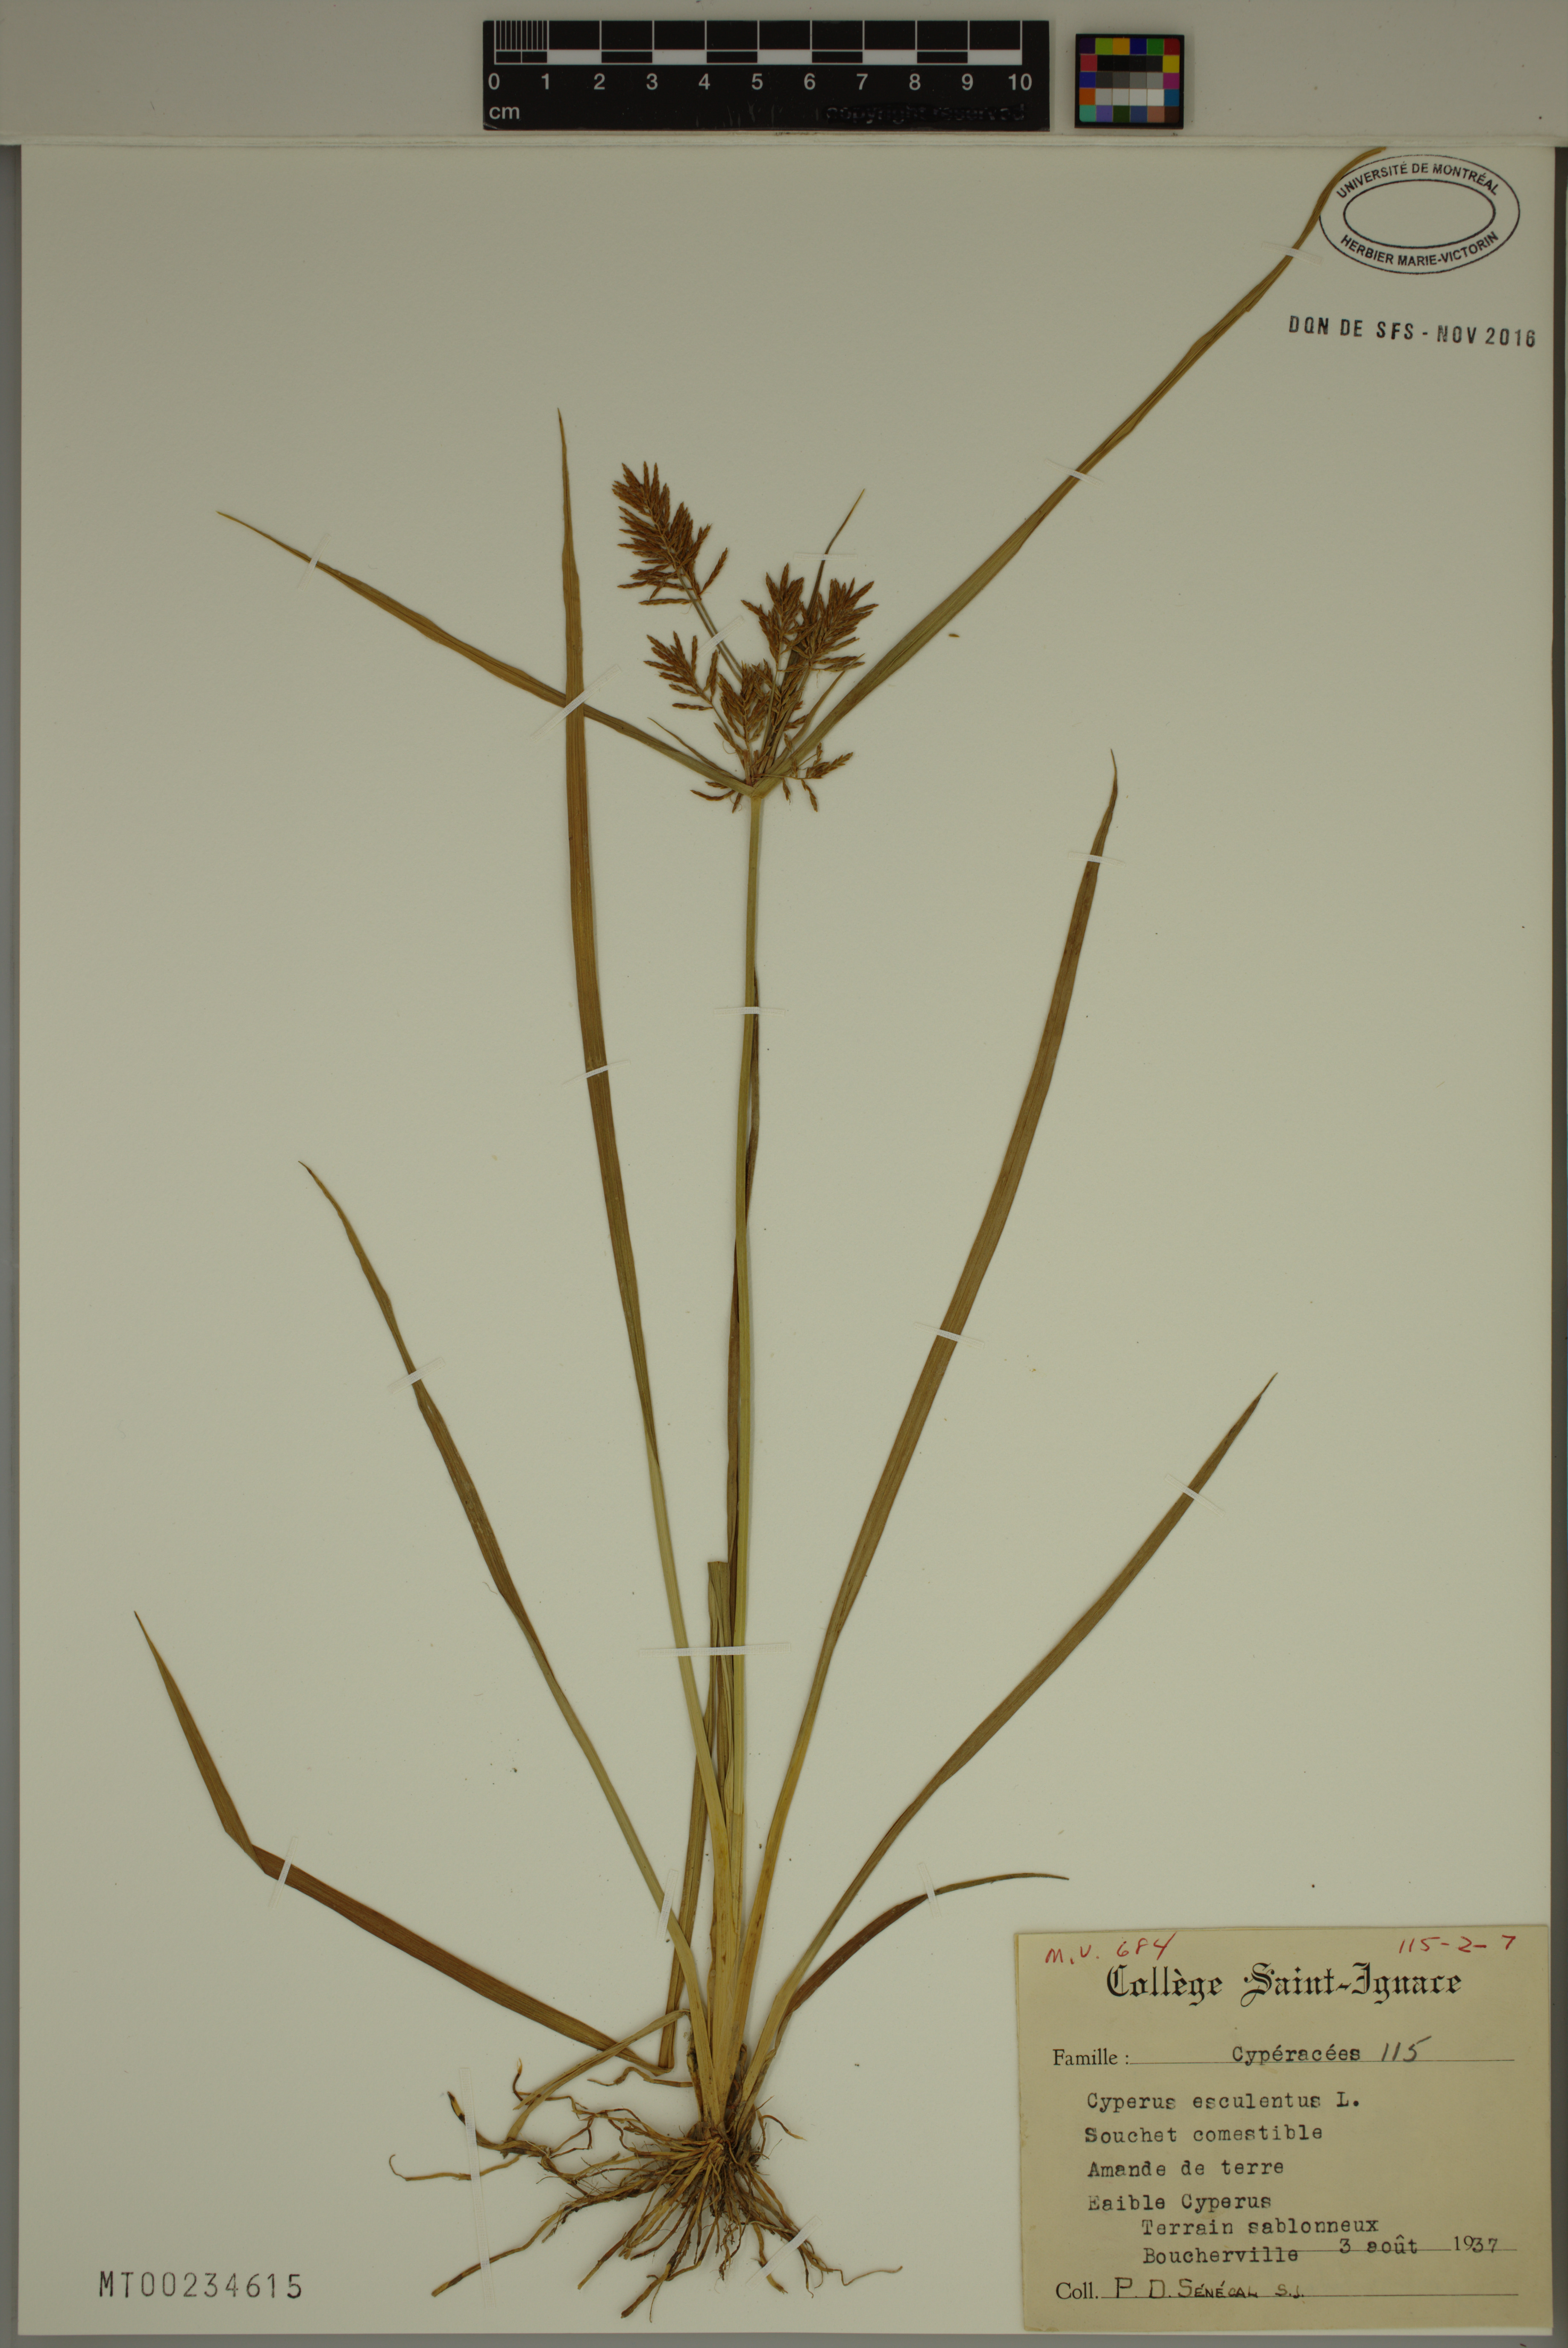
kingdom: Plantae
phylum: Tracheophyta
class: Liliopsida
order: Poales
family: Cyperaceae
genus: Cyperus
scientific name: Cyperus esculentus
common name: Yellow nutsedge
